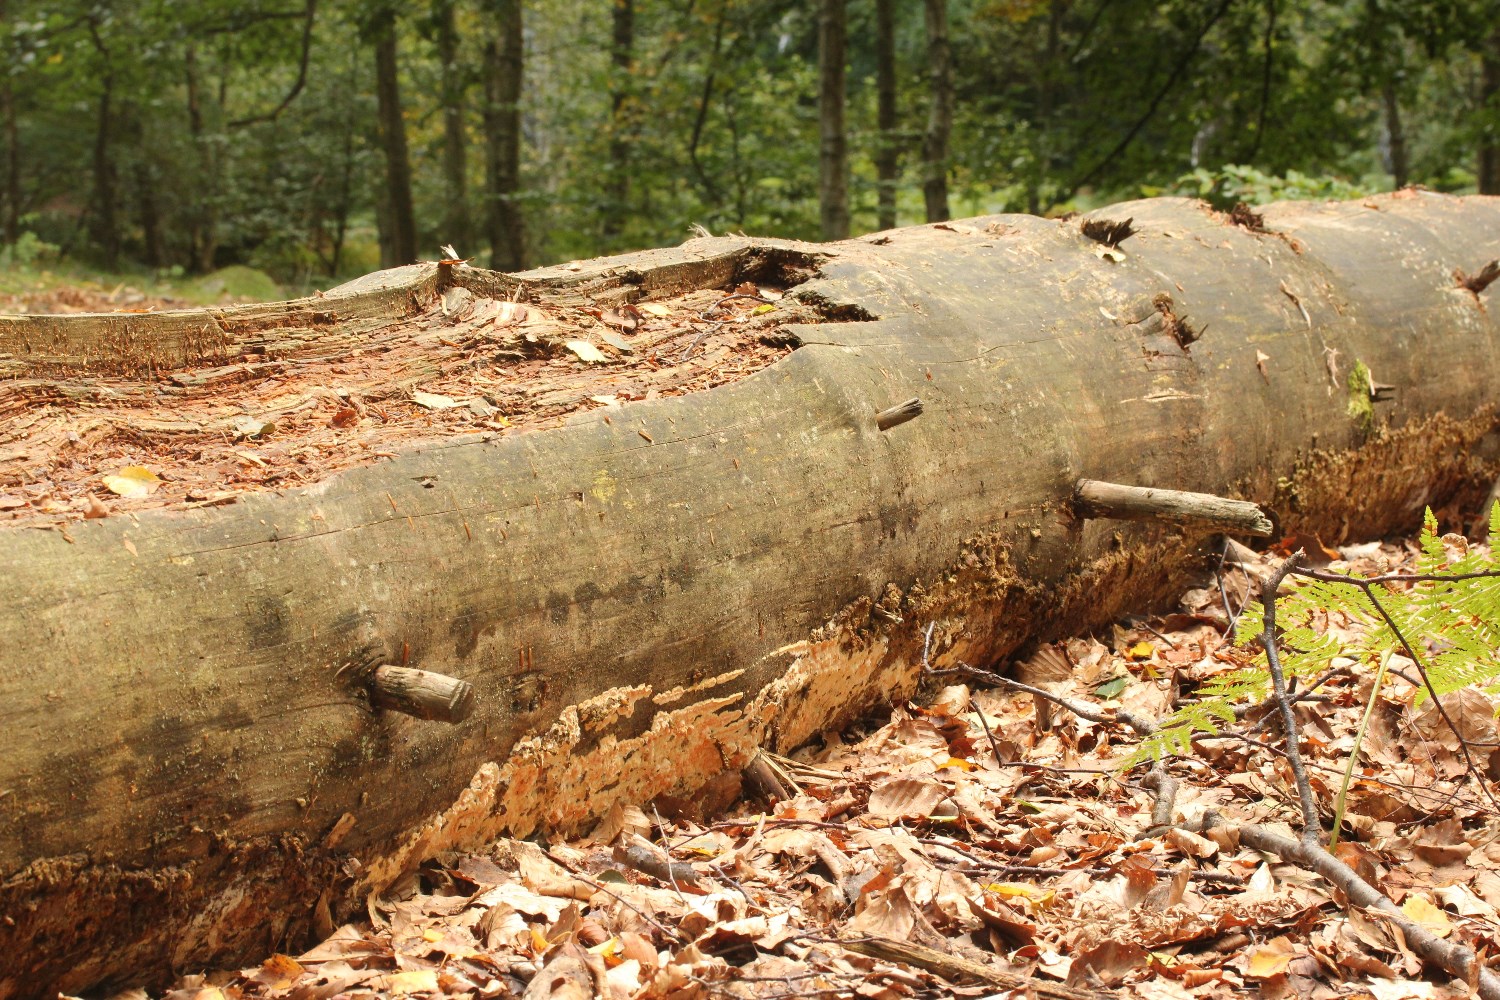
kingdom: Fungi
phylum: Basidiomycota
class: Agaricomycetes
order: Boletales
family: Coniophoraceae
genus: Penttilamyces
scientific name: Penttilamyces romellii
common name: Romells hussvamp
